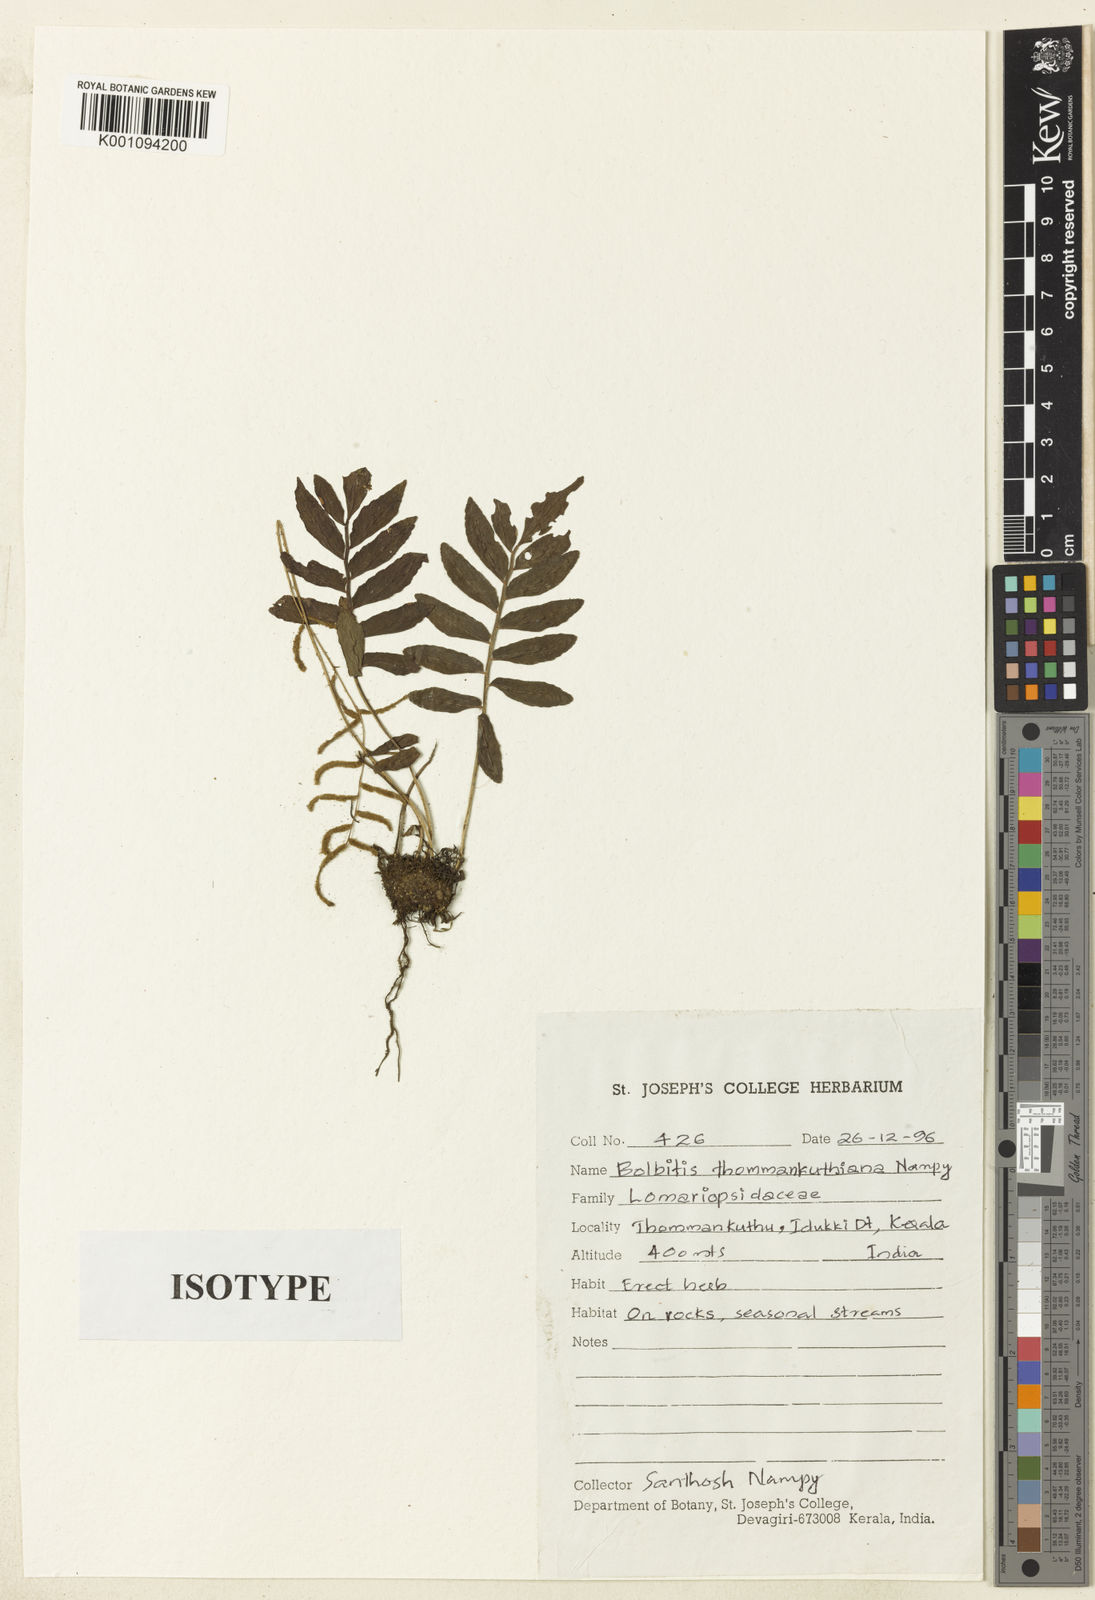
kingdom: Plantae
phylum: Tracheophyta
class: Polypodiopsida
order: Polypodiales
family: Dryopteridaceae
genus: Bolbitis
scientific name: Bolbitis semicordata
